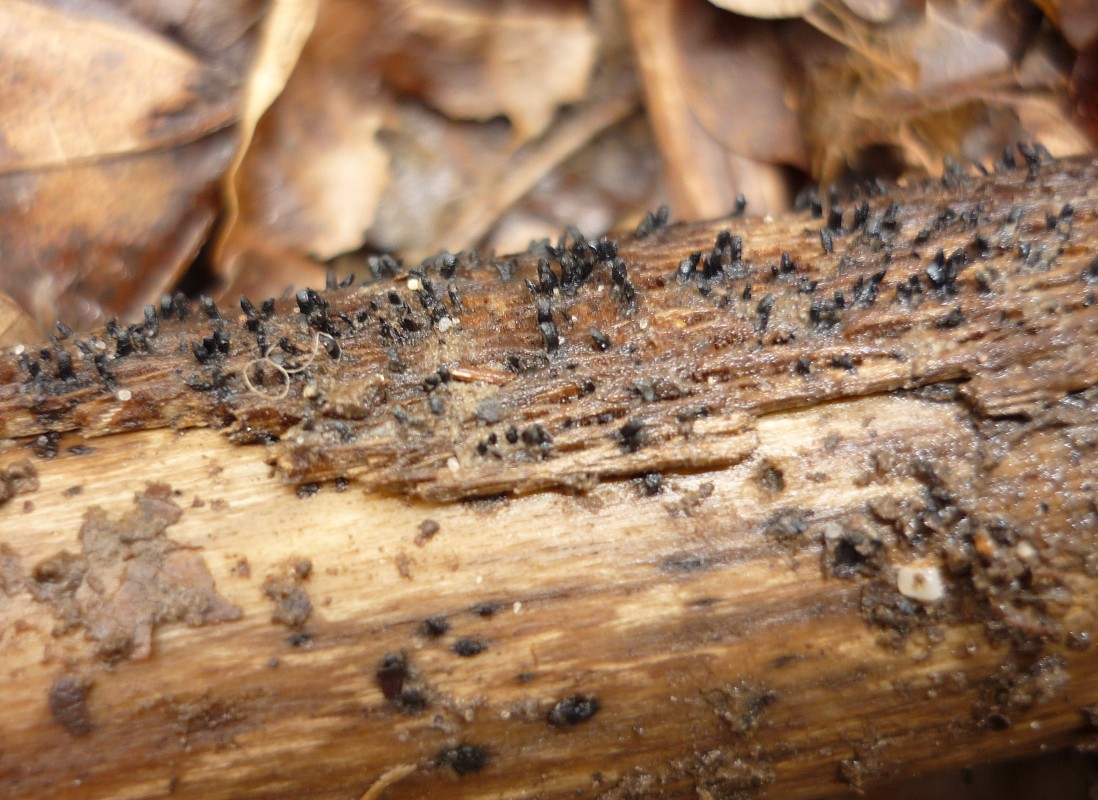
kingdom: Fungi
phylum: Ascomycota
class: Eurotiomycetes
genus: Glyphium
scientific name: Glyphium elatum
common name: kuløkse
